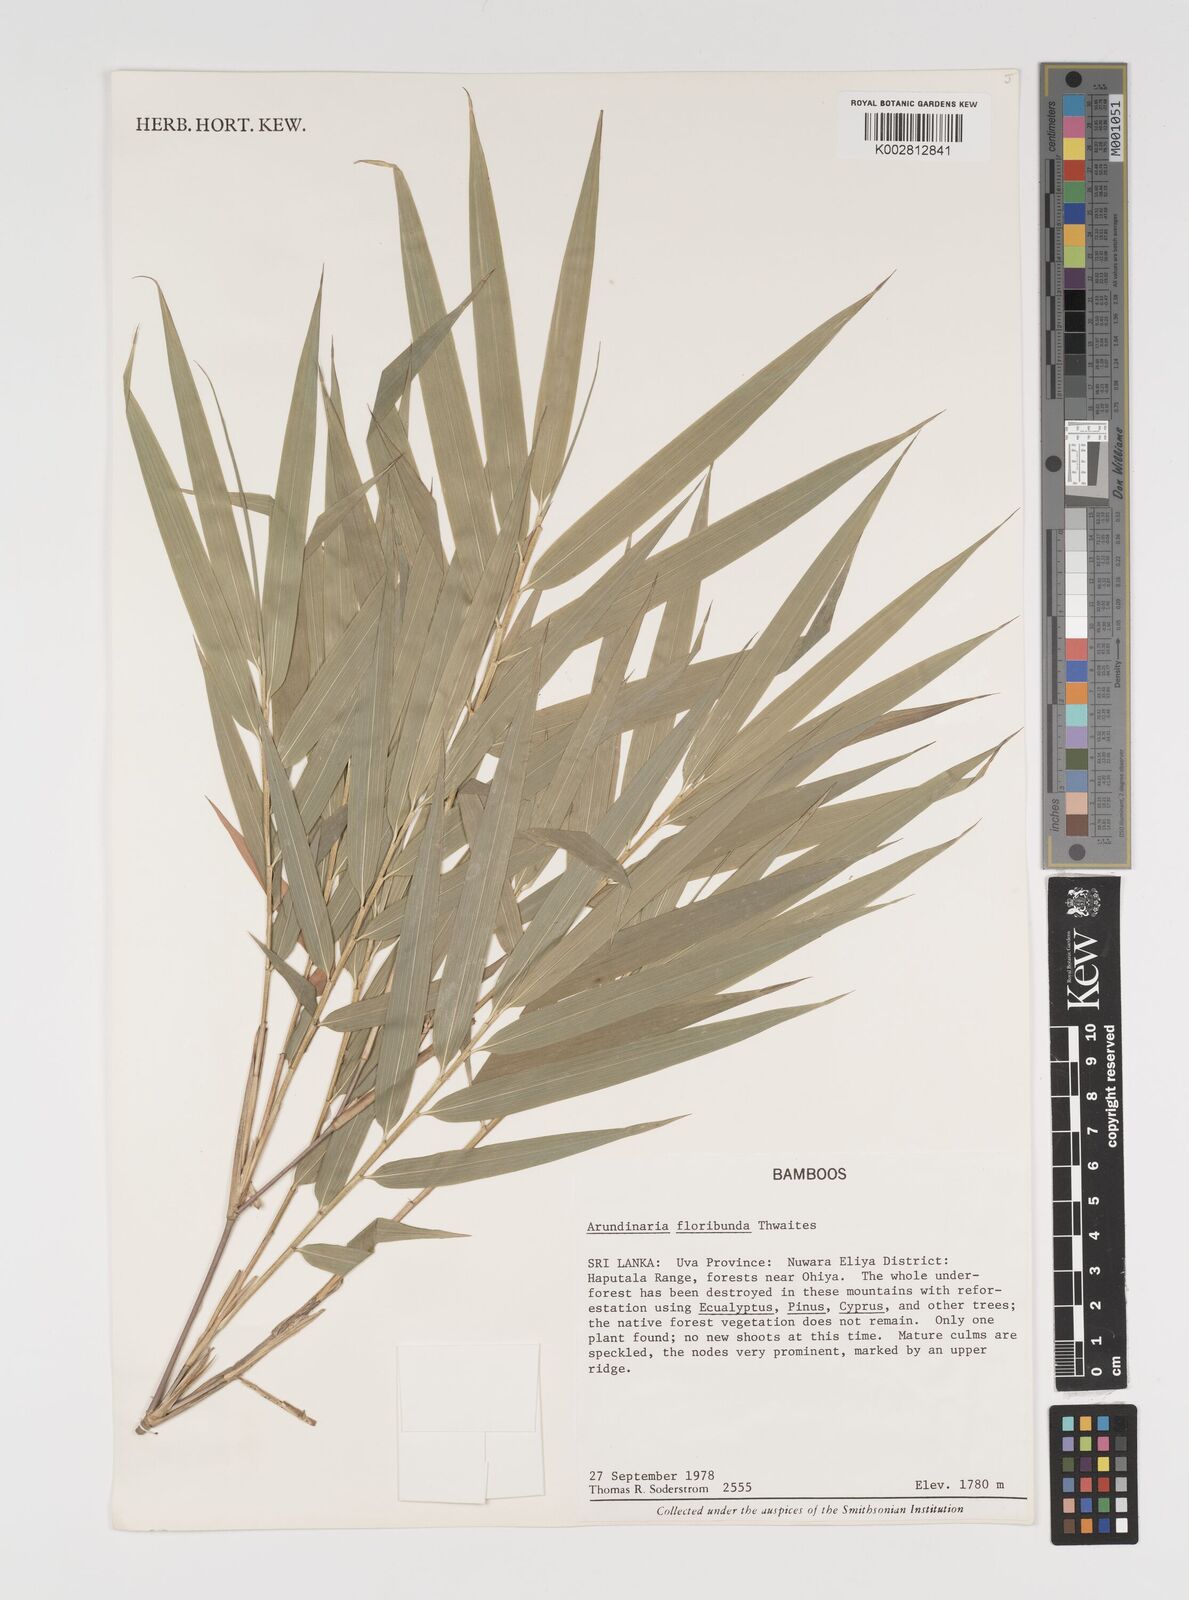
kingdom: Plantae
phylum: Tracheophyta
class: Liliopsida
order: Poales
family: Poaceae
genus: Kuruna
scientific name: Kuruna floribunda
